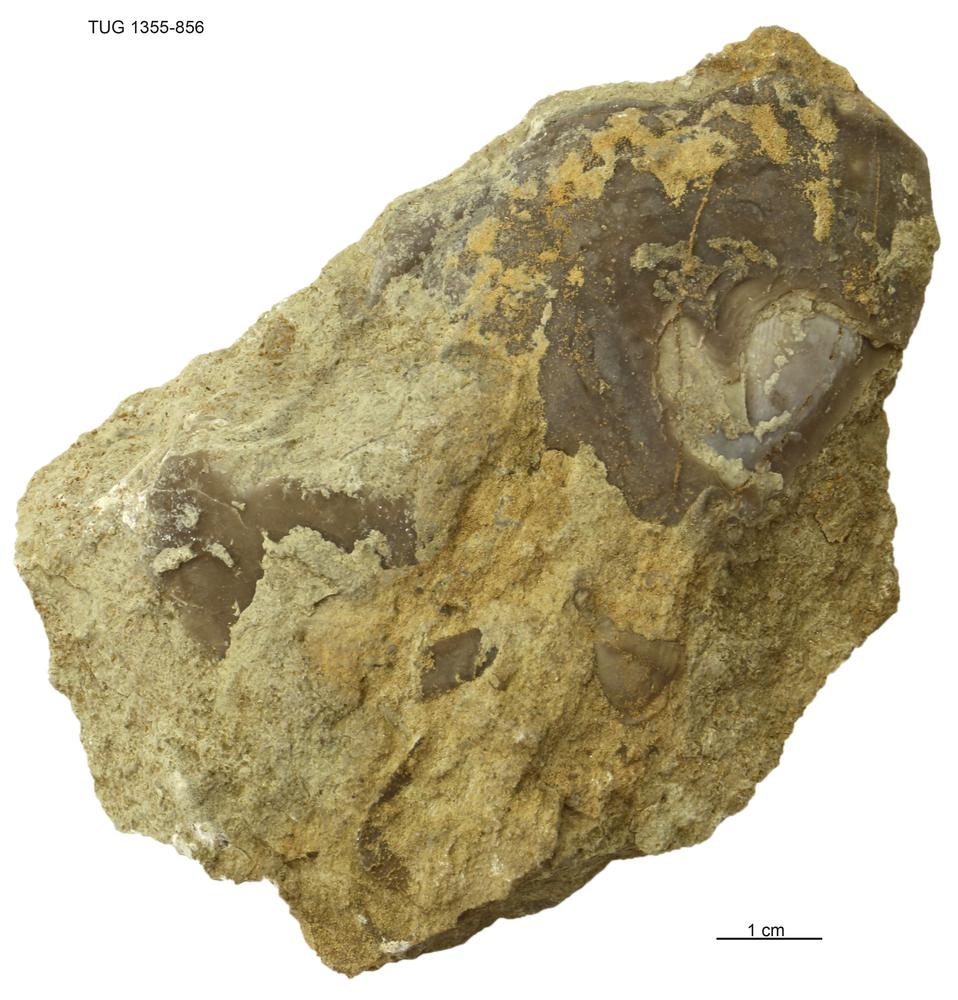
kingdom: Animalia
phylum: Arthropoda
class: Trilobita
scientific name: Trilobita
